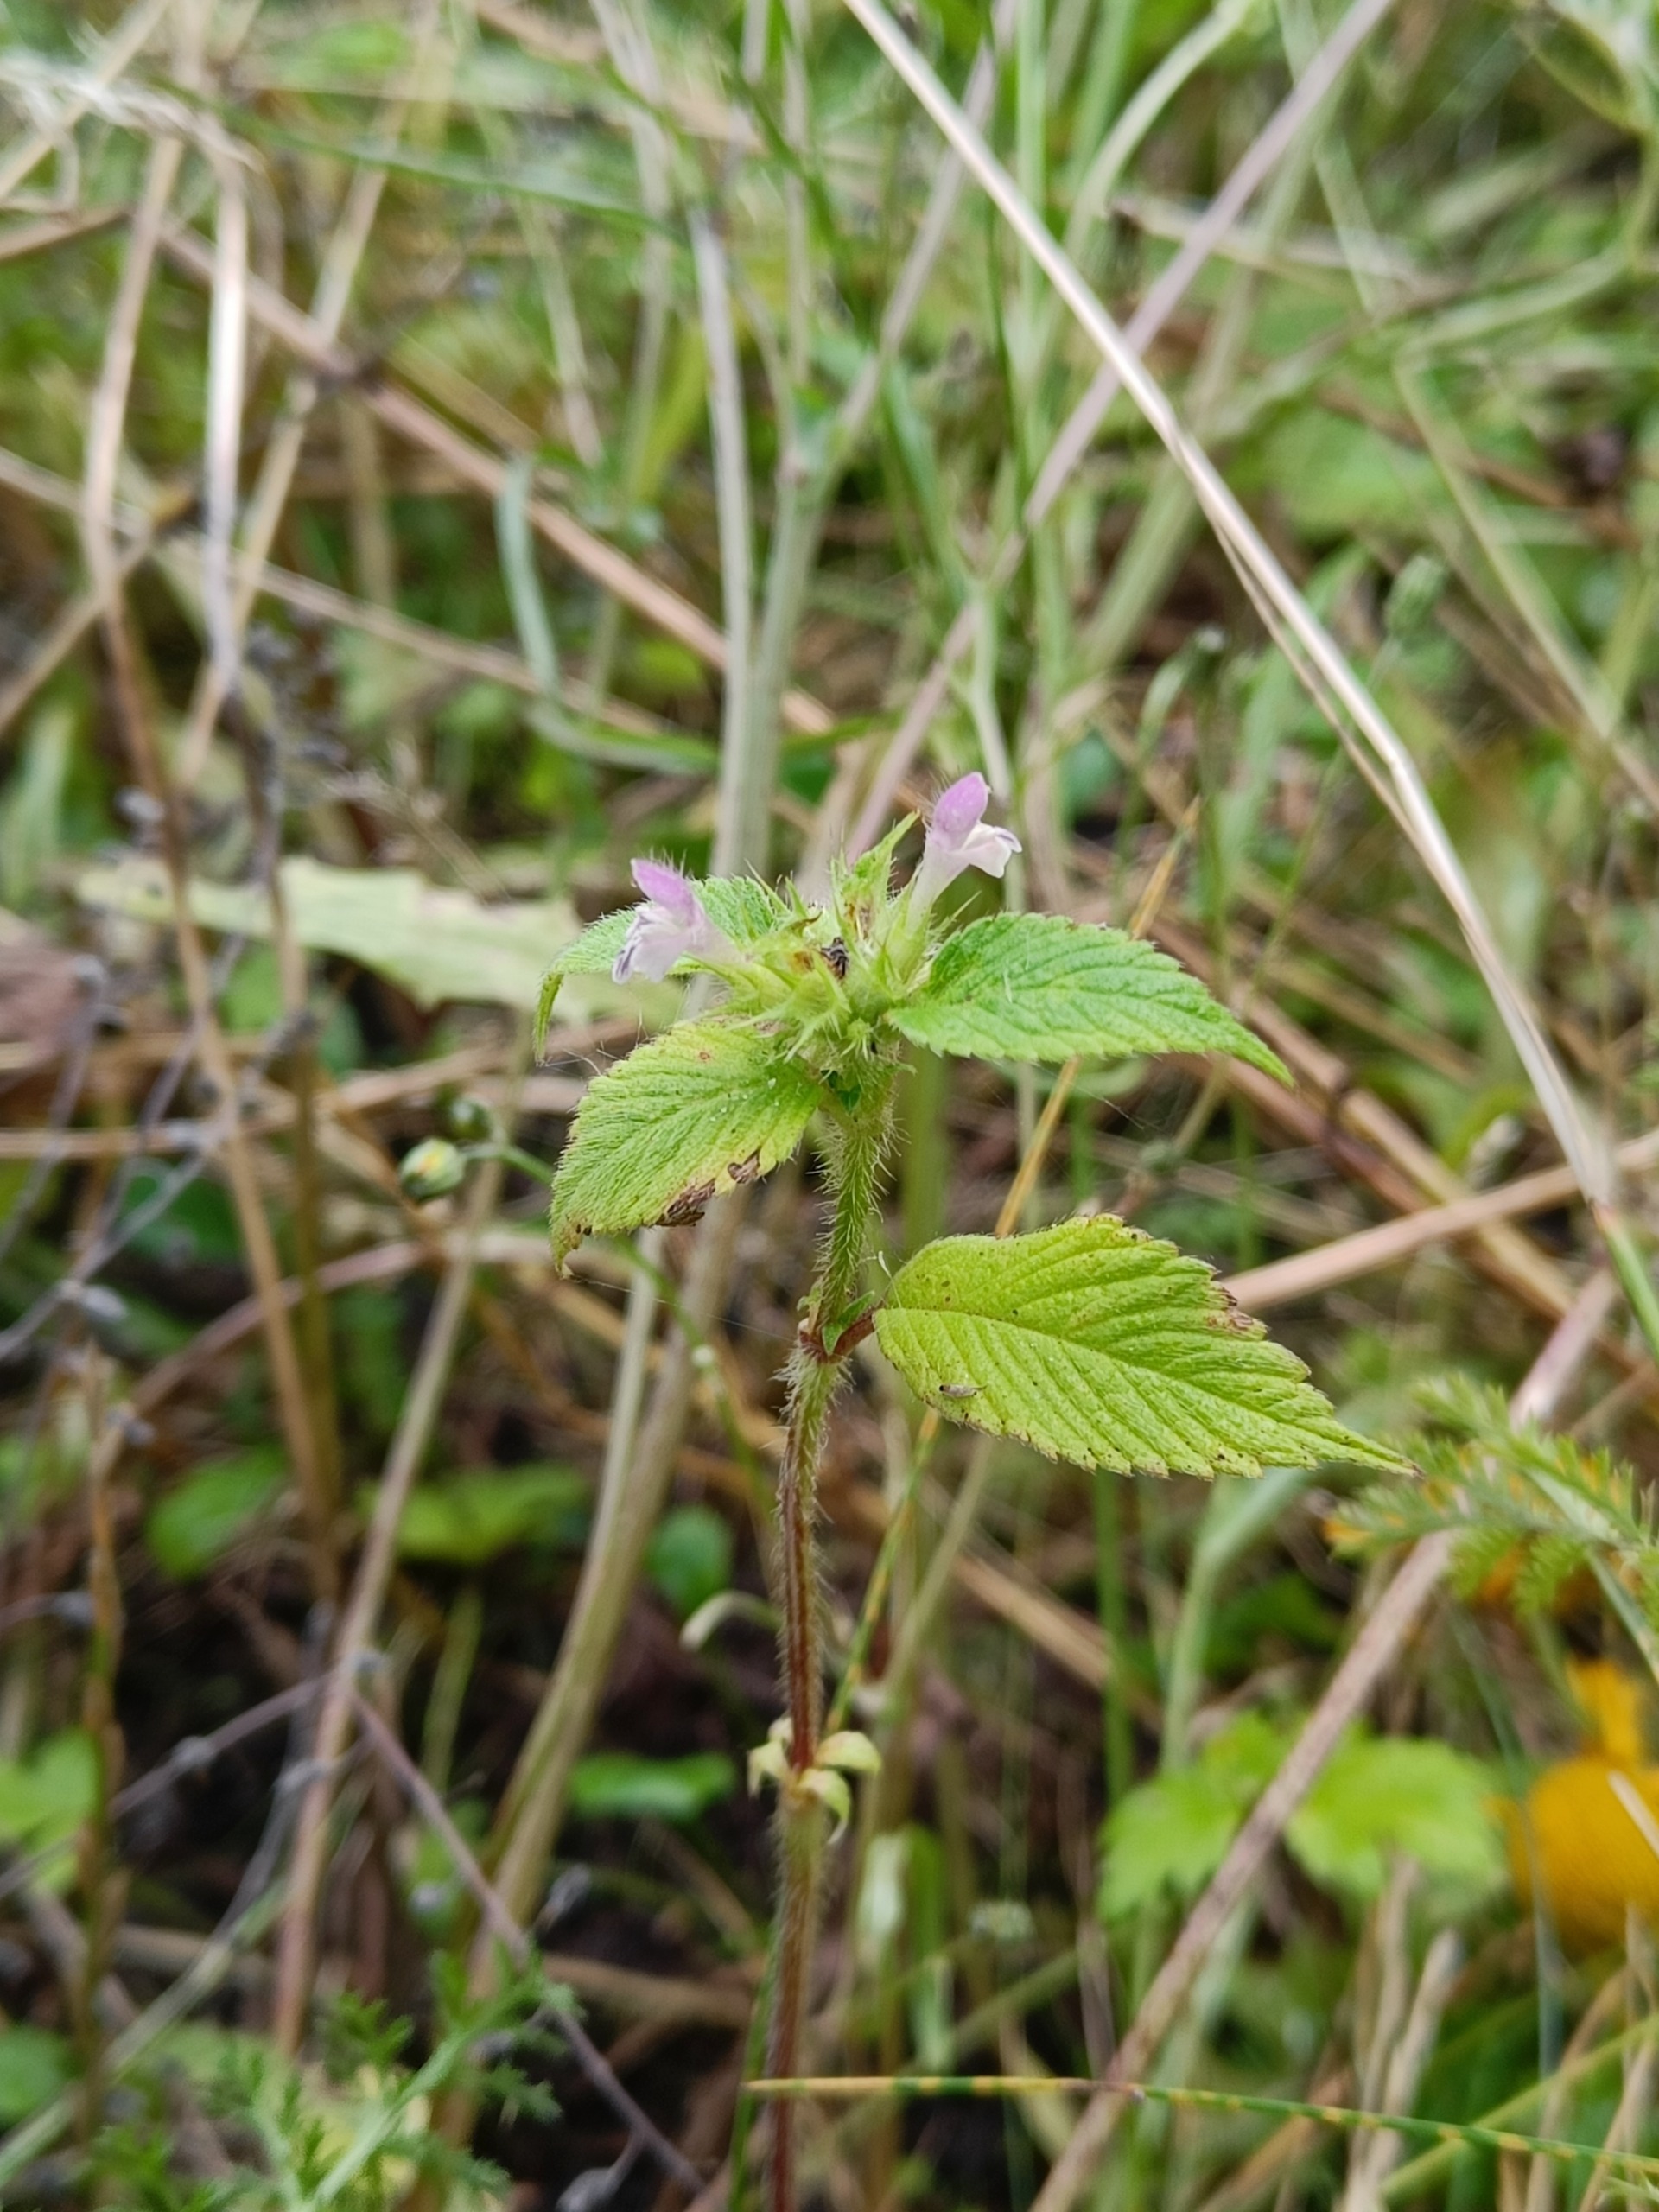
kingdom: Plantae
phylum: Tracheophyta
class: Magnoliopsida
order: Lamiales
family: Lamiaceae
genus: Galeopsis
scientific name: Galeopsis bifida
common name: Skov-hanekro
